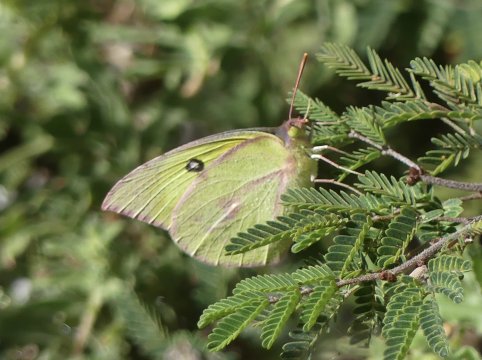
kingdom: Animalia
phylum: Arthropoda
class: Insecta
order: Lepidoptera
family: Pieridae
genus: Zerene
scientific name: Zerene cesonia
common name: Southern Dogface
